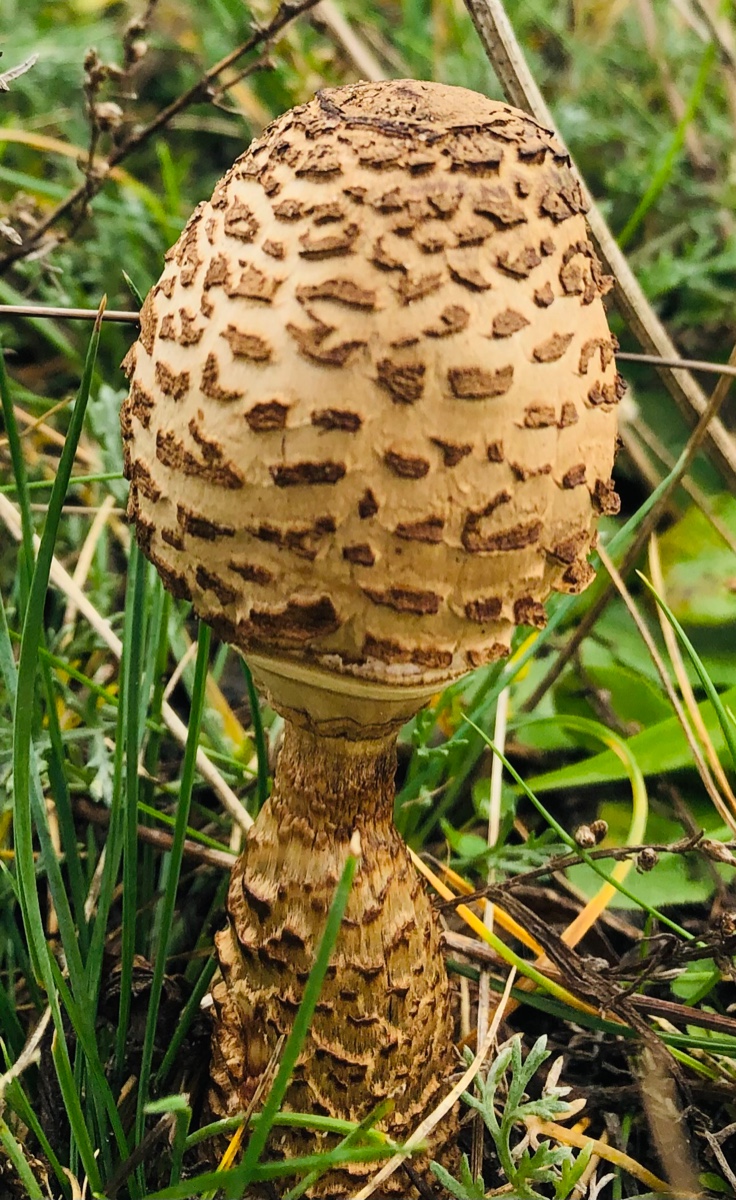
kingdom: Fungi
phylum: Basidiomycota
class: Agaricomycetes
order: Agaricales
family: Agaricaceae
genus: Macrolepiota
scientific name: Macrolepiota procera
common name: stor kæmpeparasolhat
